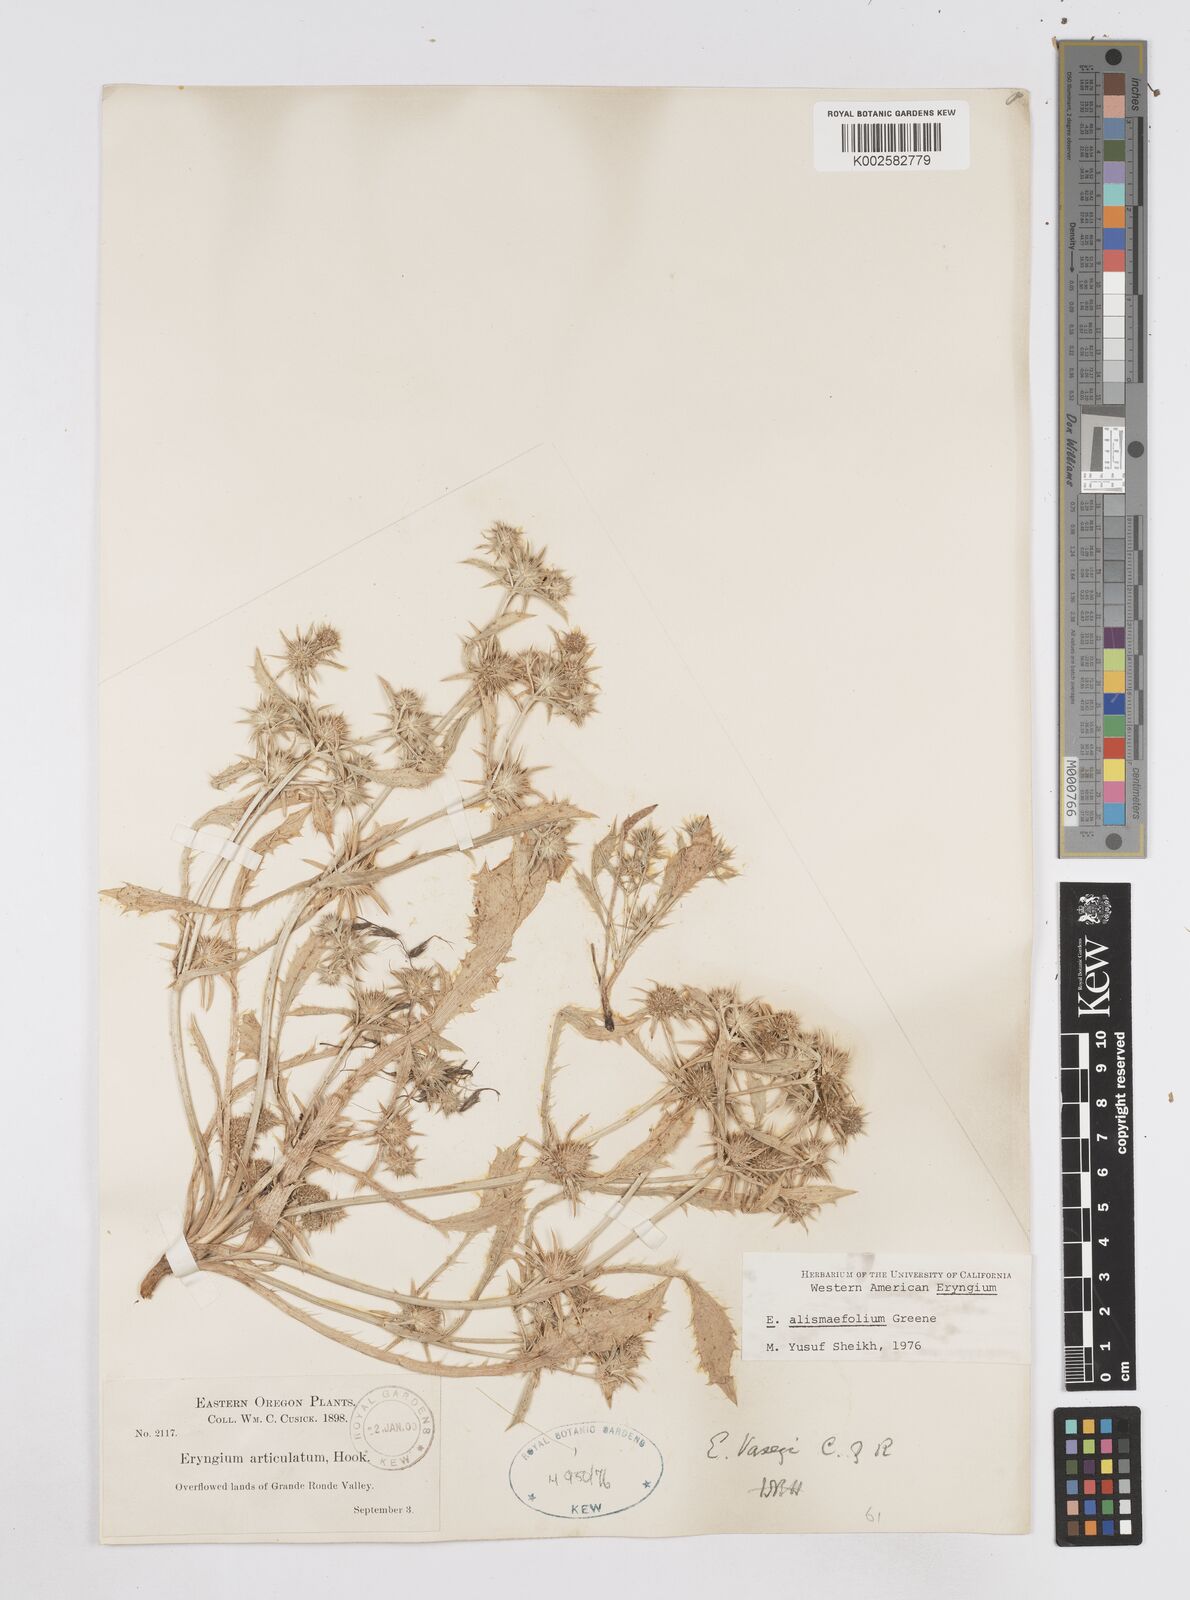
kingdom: Plantae
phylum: Tracheophyta
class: Magnoliopsida
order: Apiales
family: Apiaceae
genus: Eryngium
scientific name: Eryngium alismifolium
